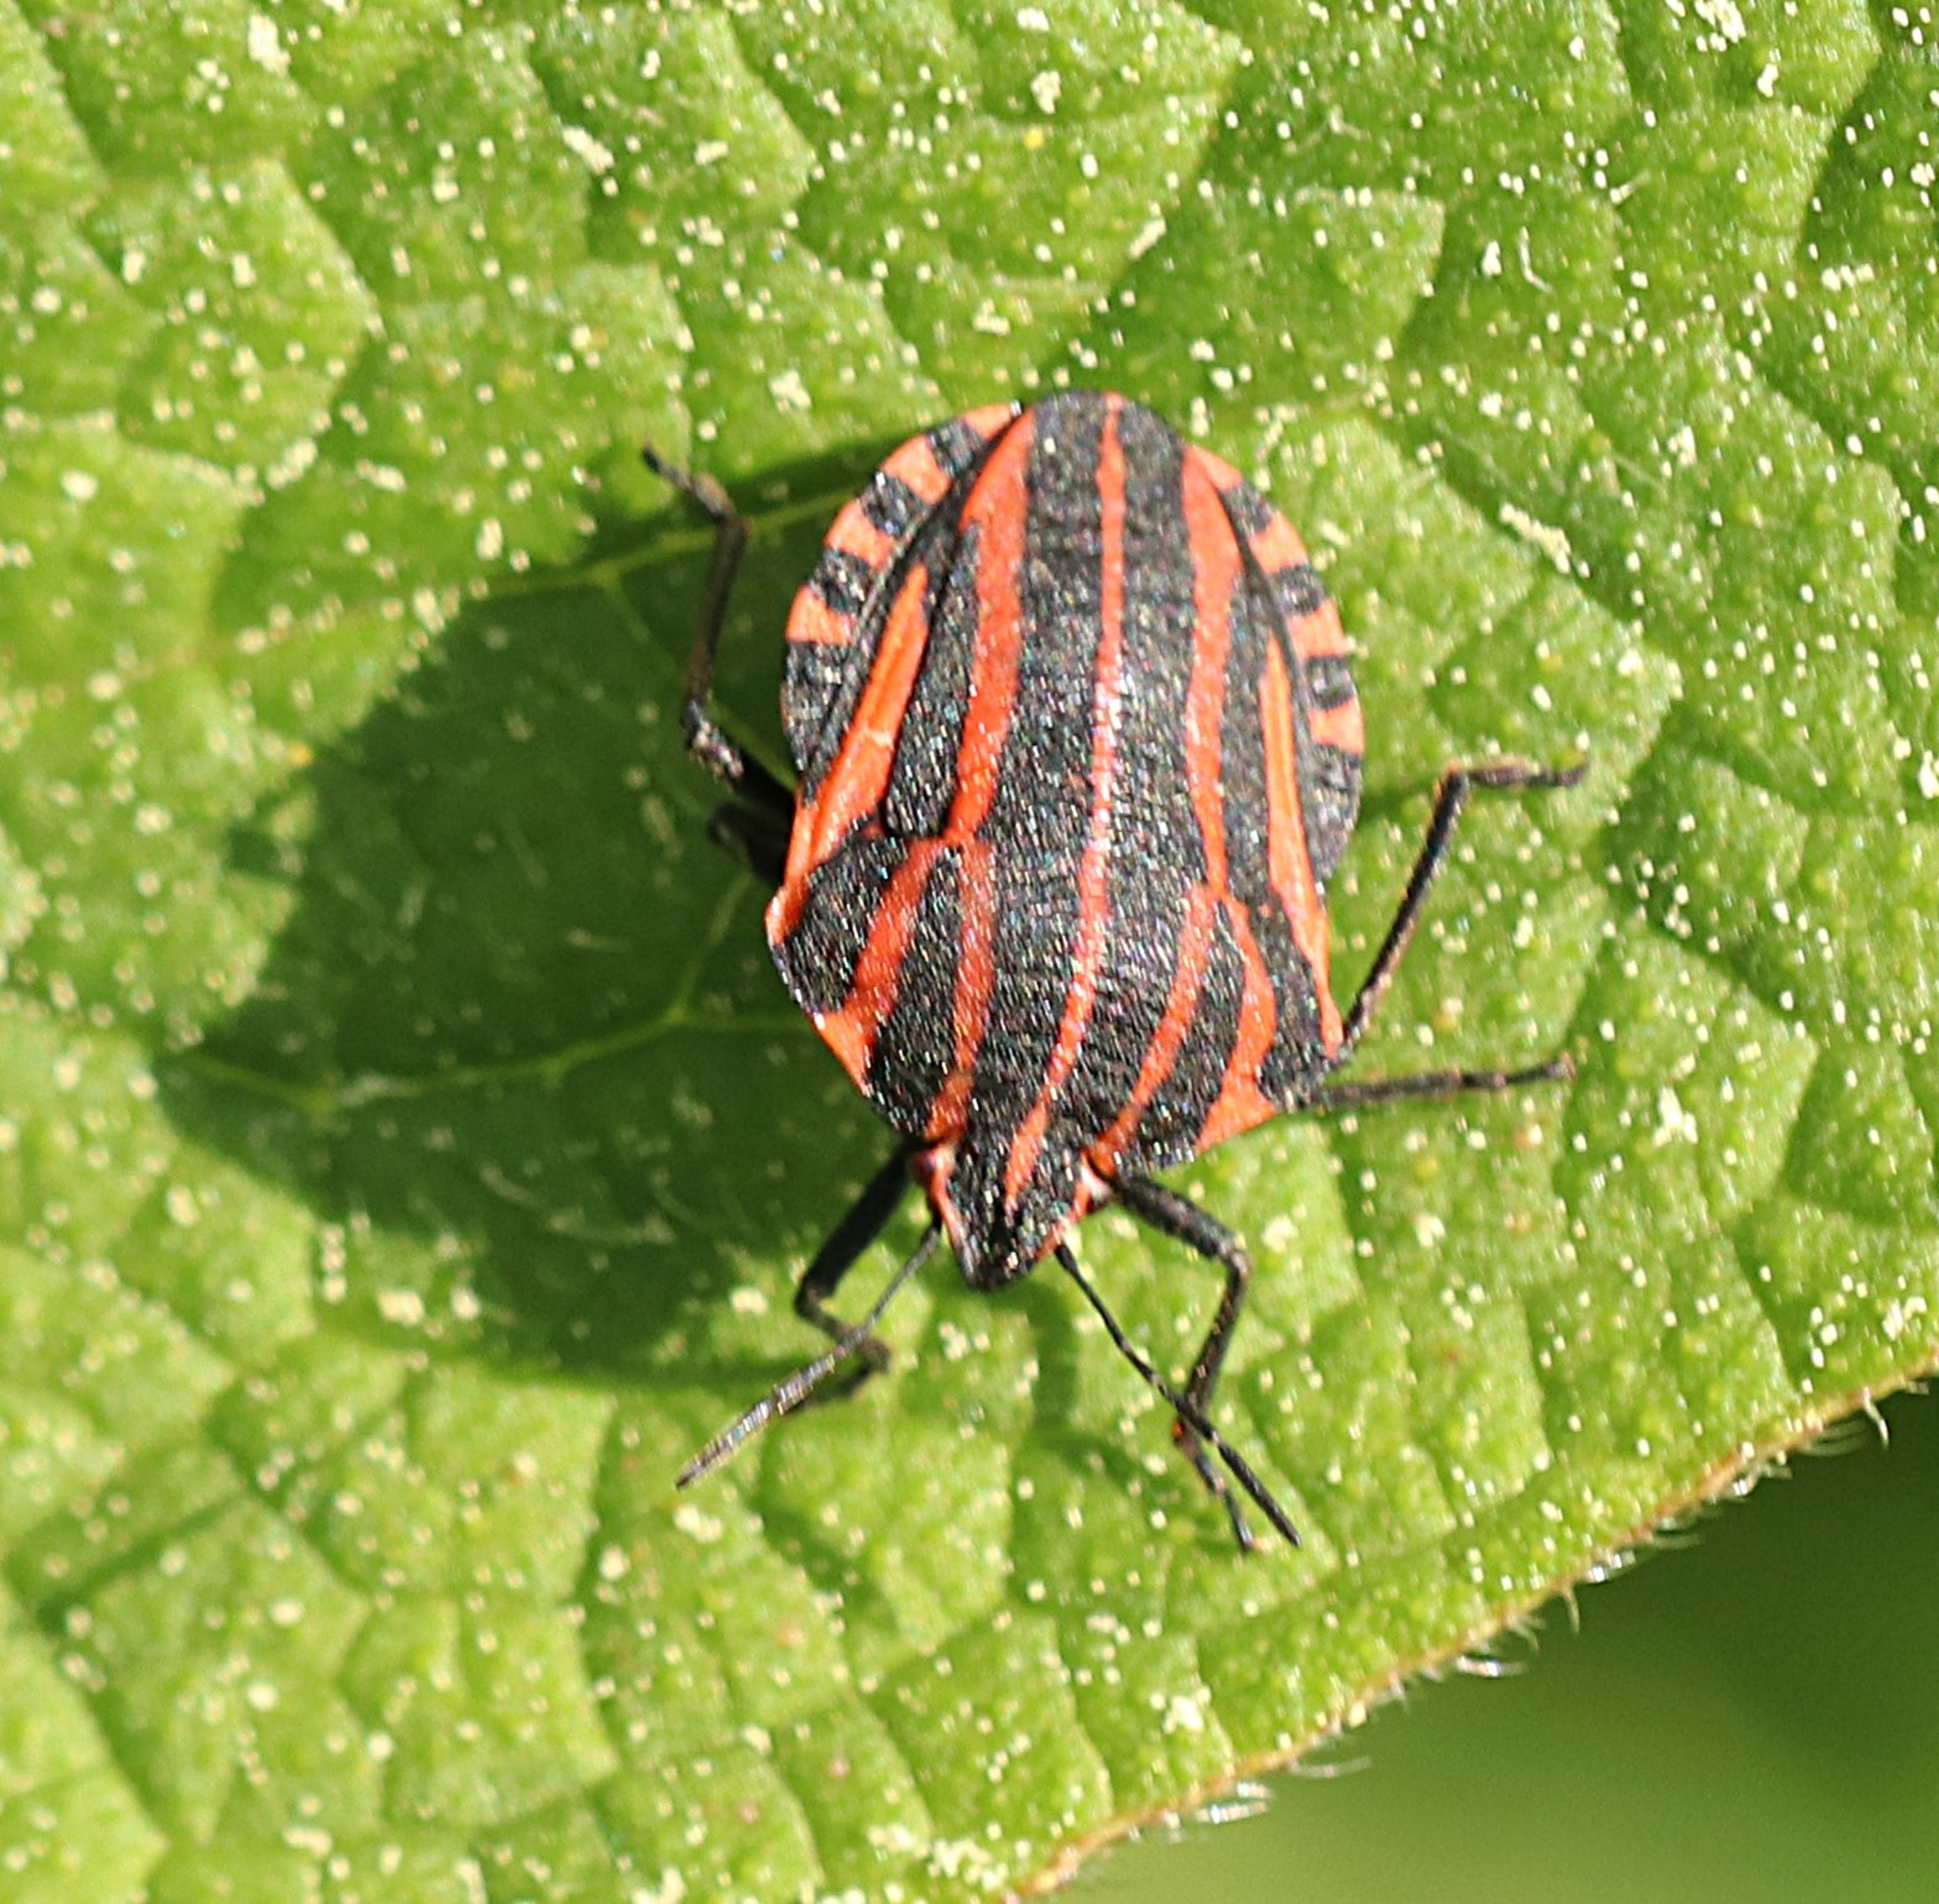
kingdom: Animalia
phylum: Arthropoda
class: Insecta
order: Hemiptera
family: Pentatomidae
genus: Graphosoma
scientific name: Graphosoma italicum
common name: Stribetæge
